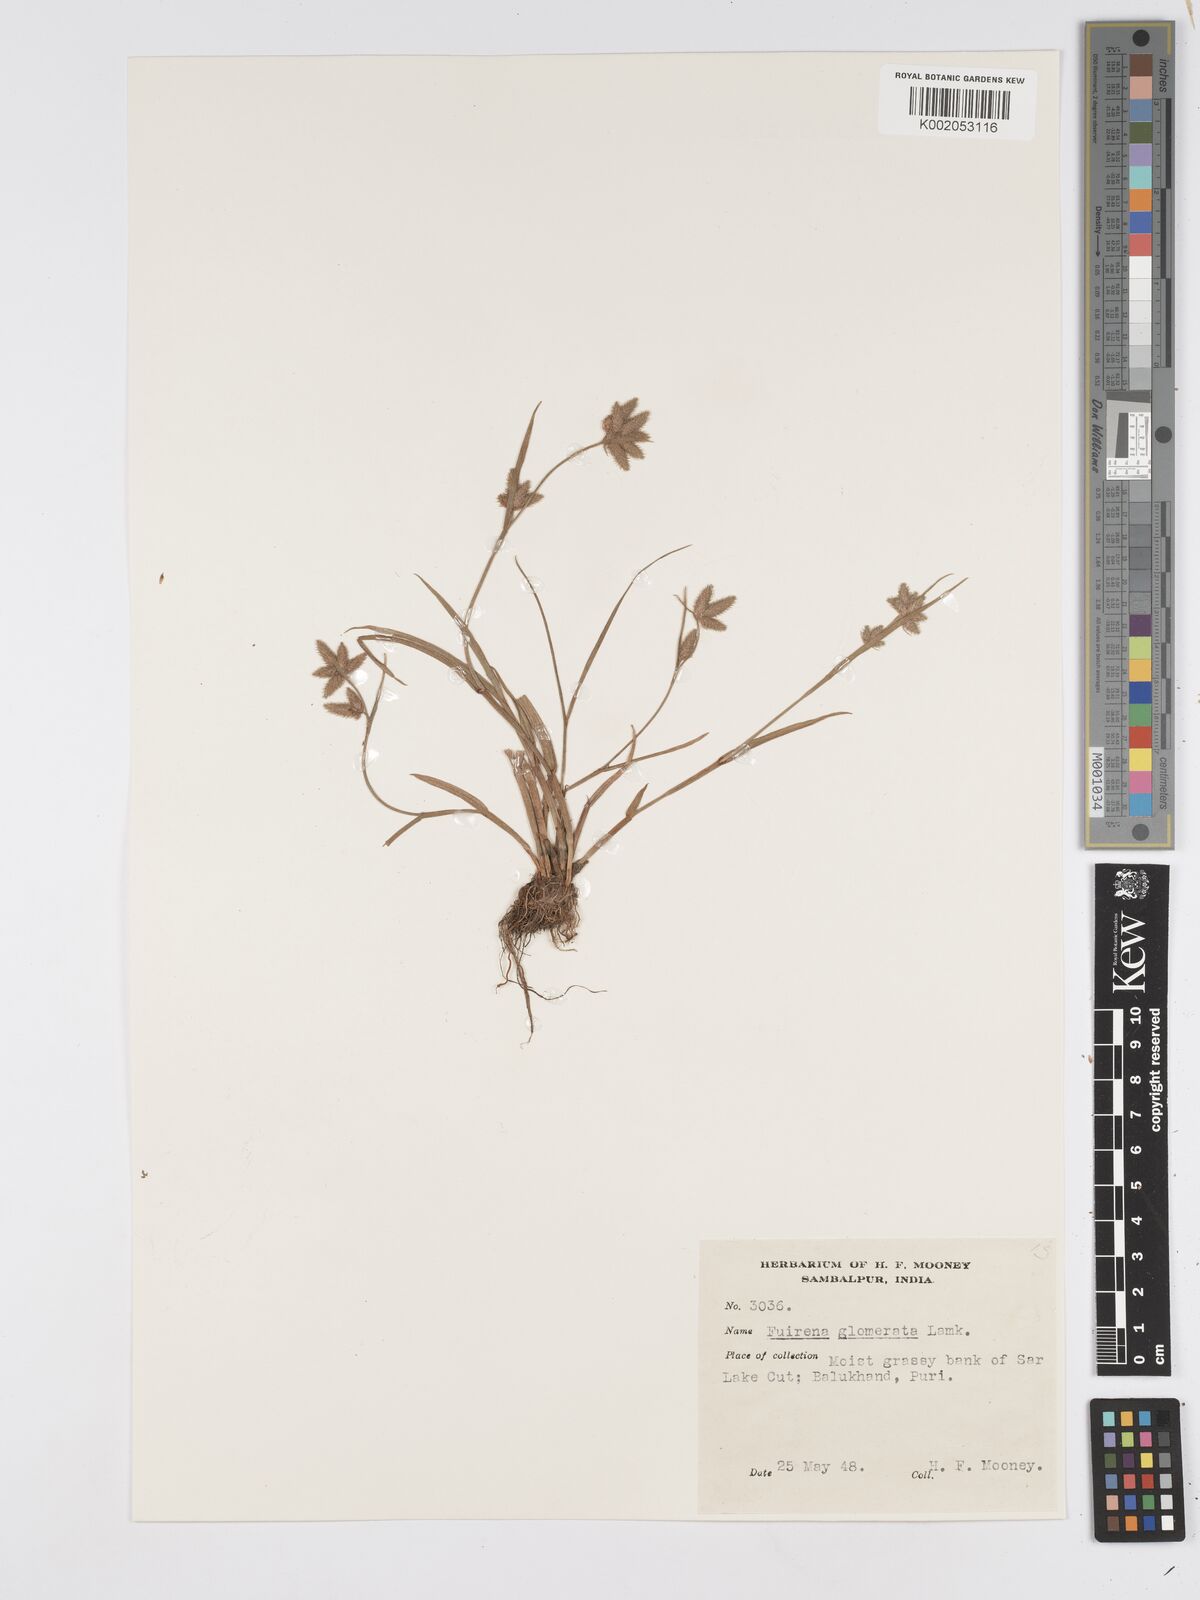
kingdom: Plantae
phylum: Tracheophyta
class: Liliopsida
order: Poales
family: Cyperaceae
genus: Fuirena
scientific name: Fuirena ciliaris
